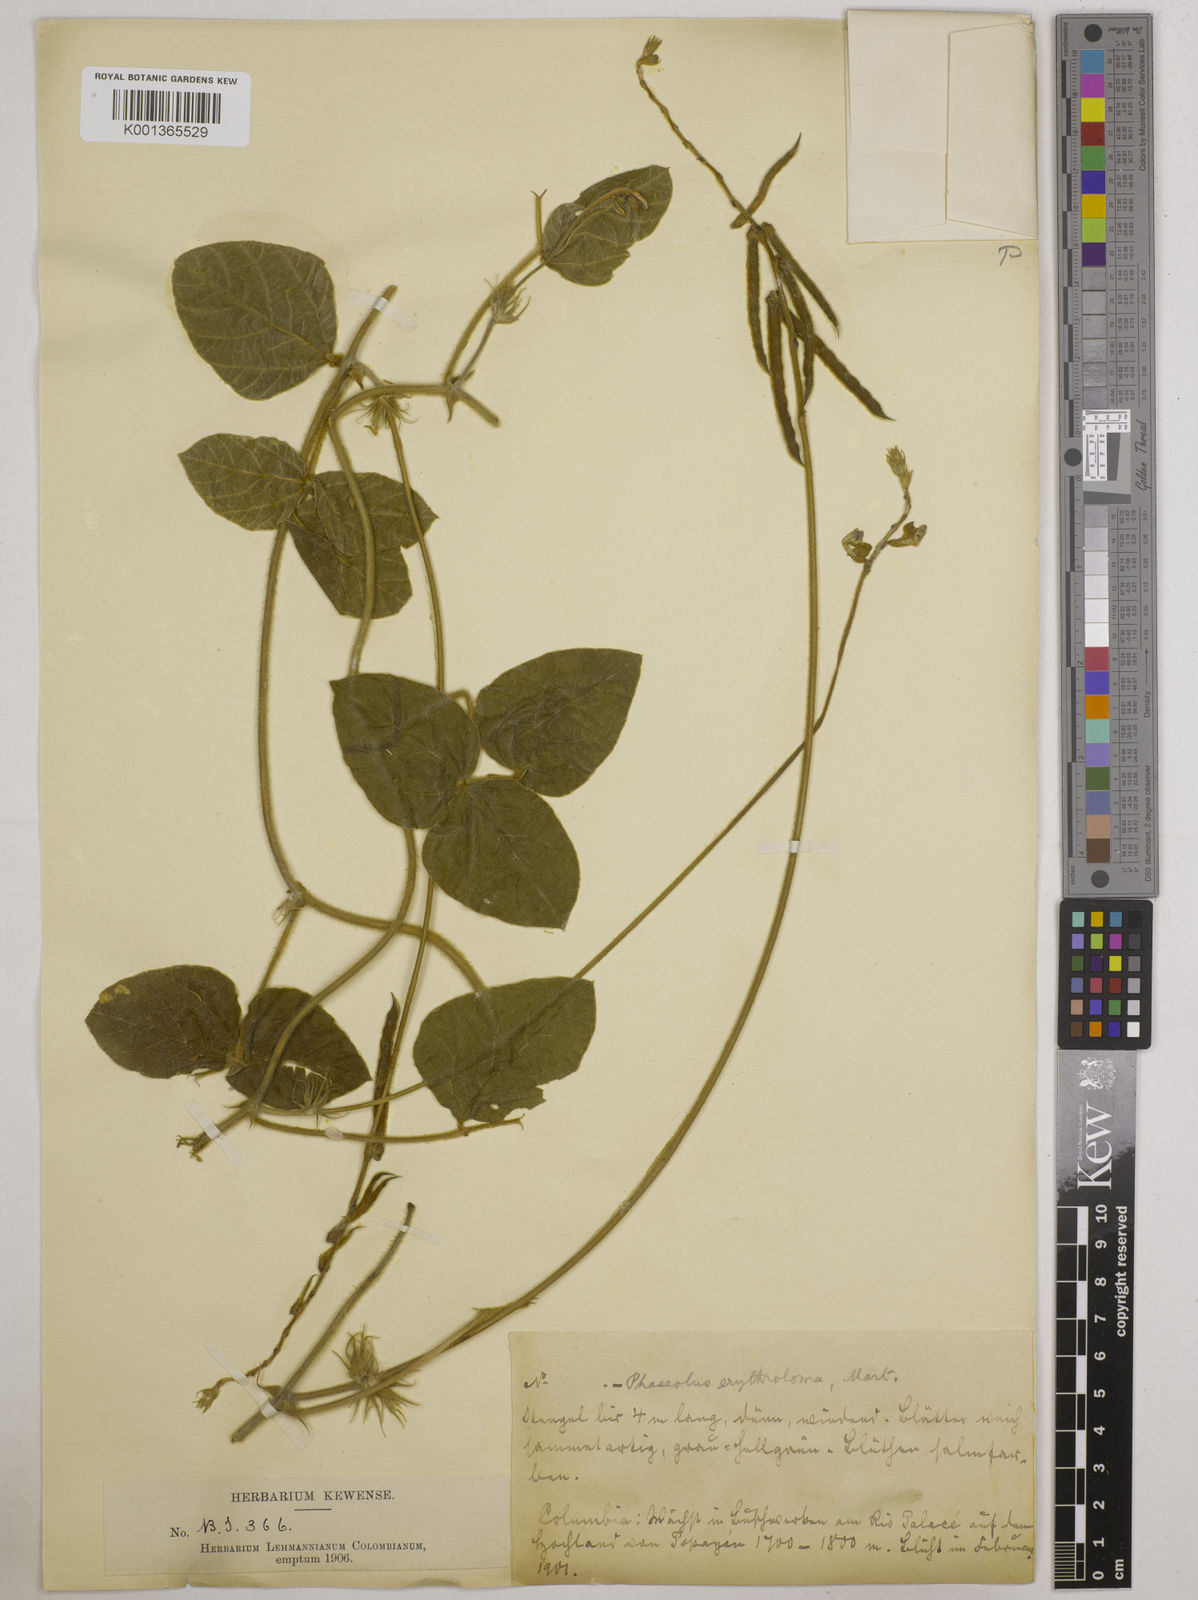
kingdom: Plantae
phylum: Tracheophyta
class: Magnoliopsida
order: Fabales
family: Fabaceae
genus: Macroptilium
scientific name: Macroptilium erythroloma
